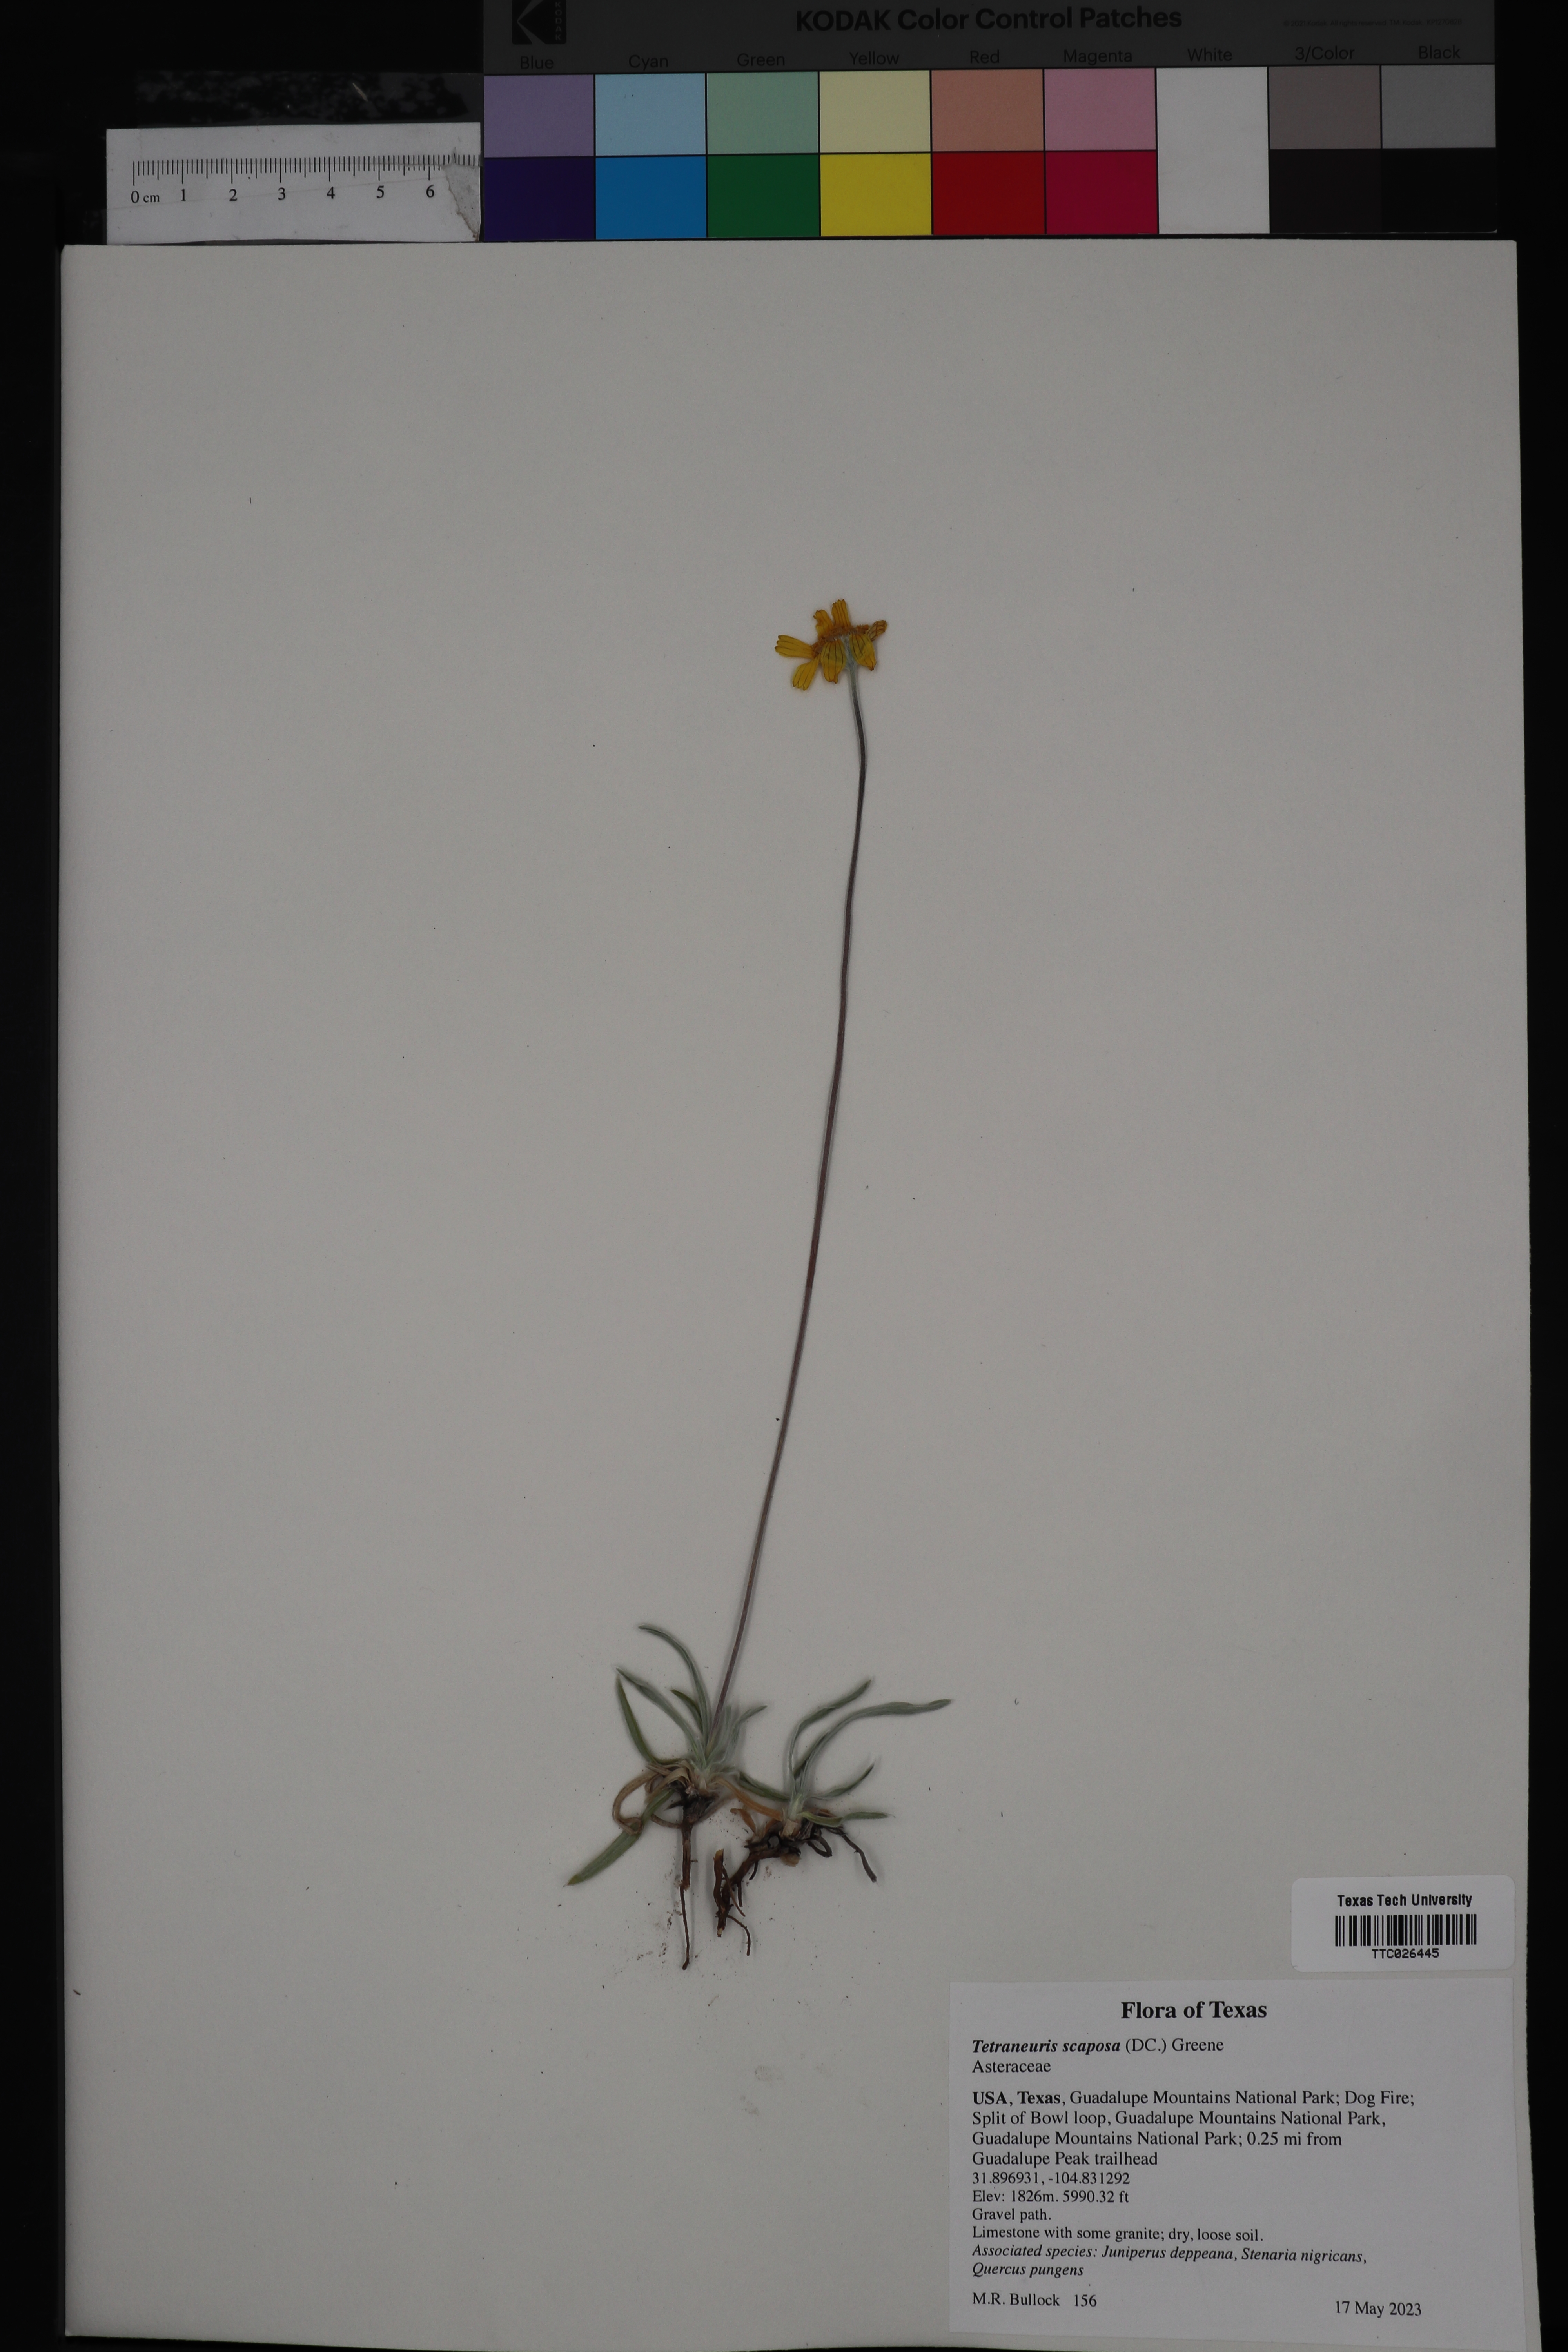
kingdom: Plantae
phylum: Tracheophyta
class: Magnoliopsida
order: Asterales
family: Asteraceae
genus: Tetraneuris
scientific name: Tetraneuris scaposa
